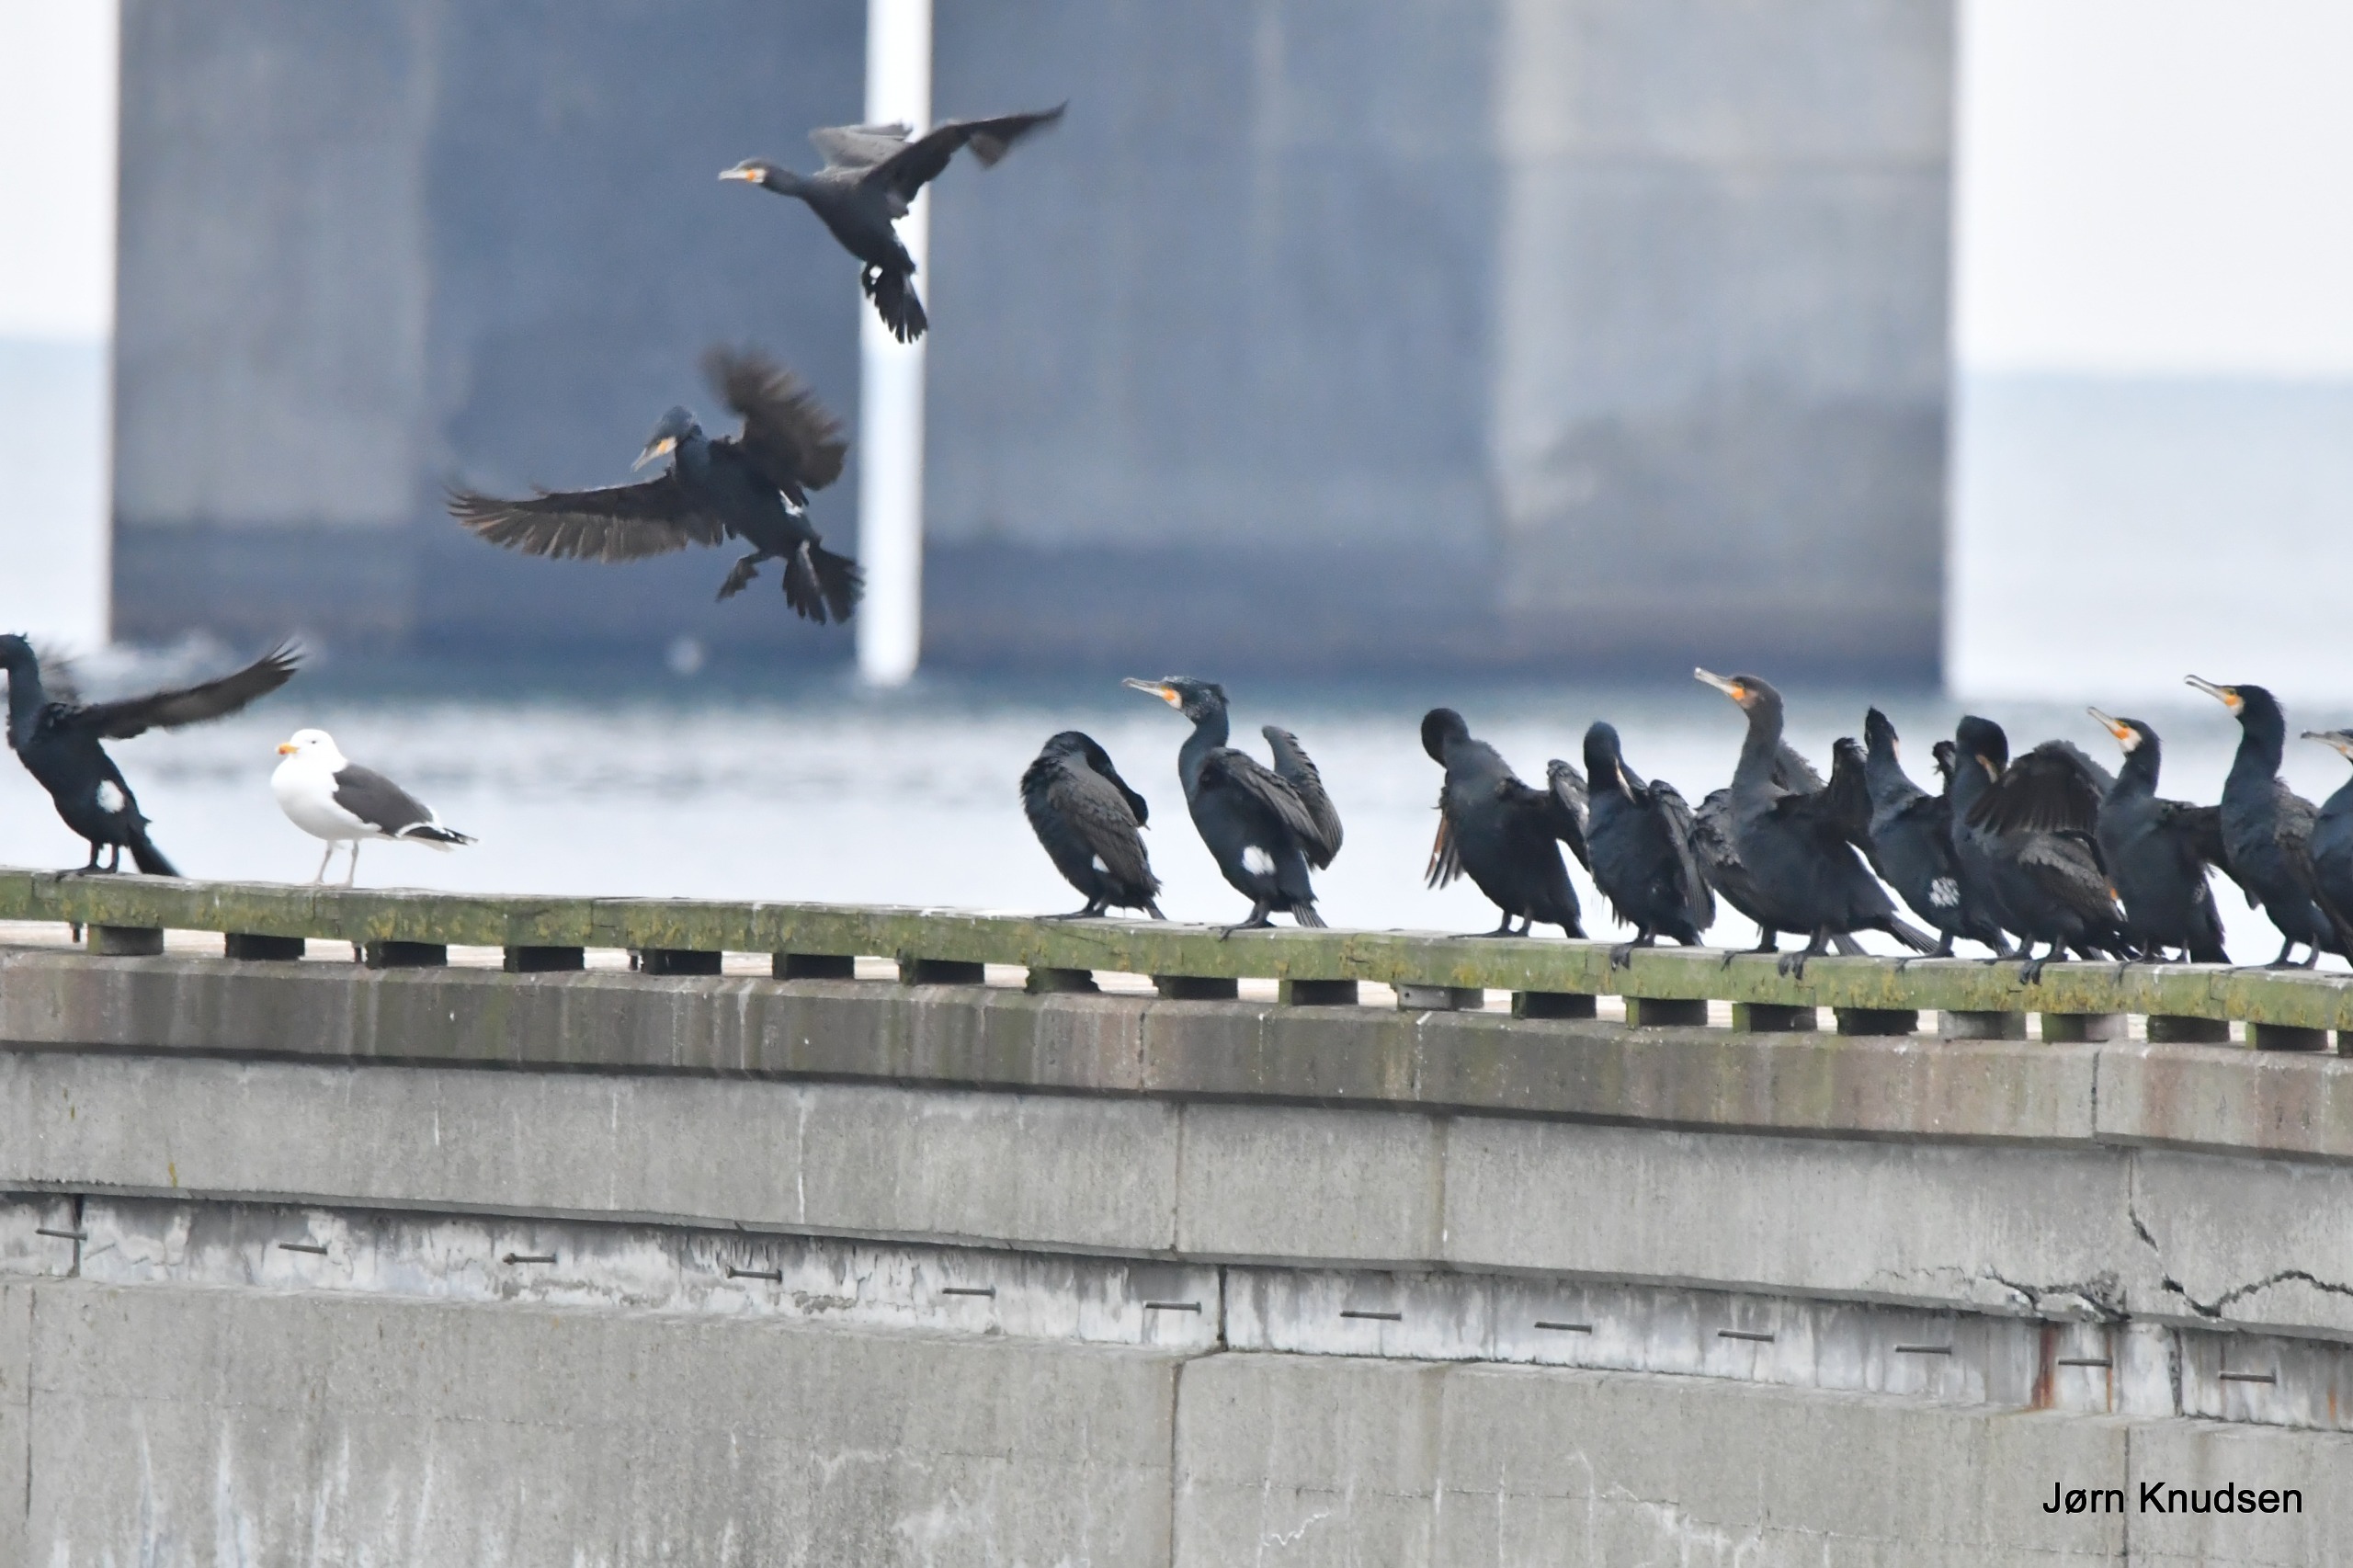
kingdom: Animalia
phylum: Chordata
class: Aves
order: Suliformes
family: Phalacrocoracidae
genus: Phalacrocorax
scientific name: Phalacrocorax carbo
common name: Skarv
